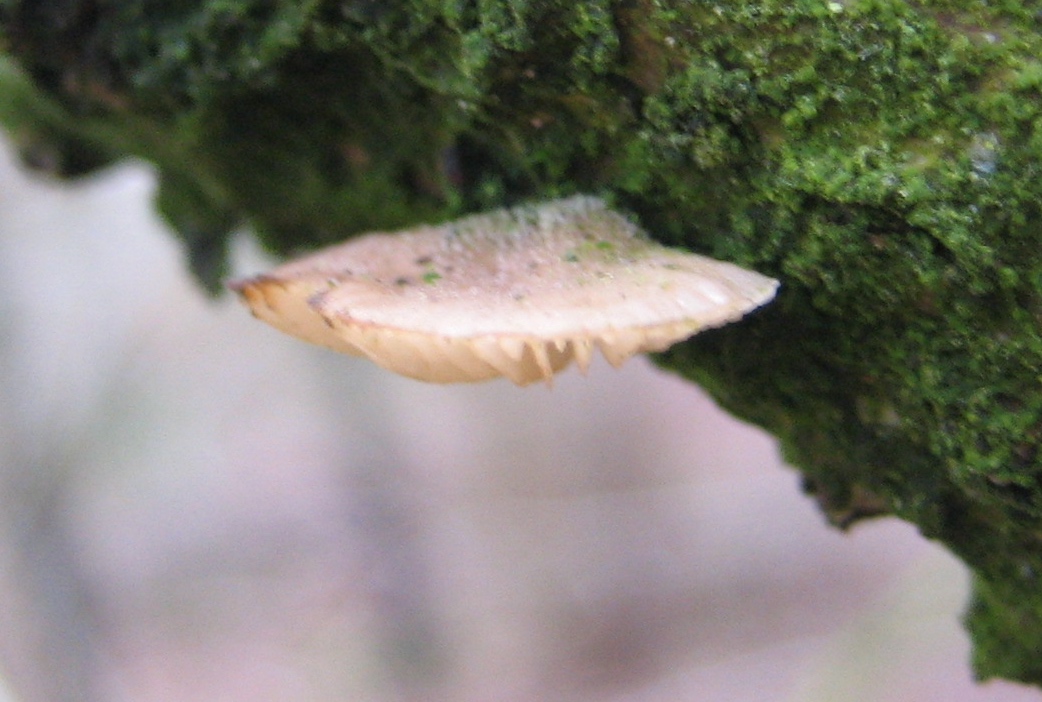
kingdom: Fungi
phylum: Basidiomycota
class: Agaricomycetes
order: Agaricales
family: Pleurotaceae
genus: Hohenbuehelia
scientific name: Hohenbuehelia
